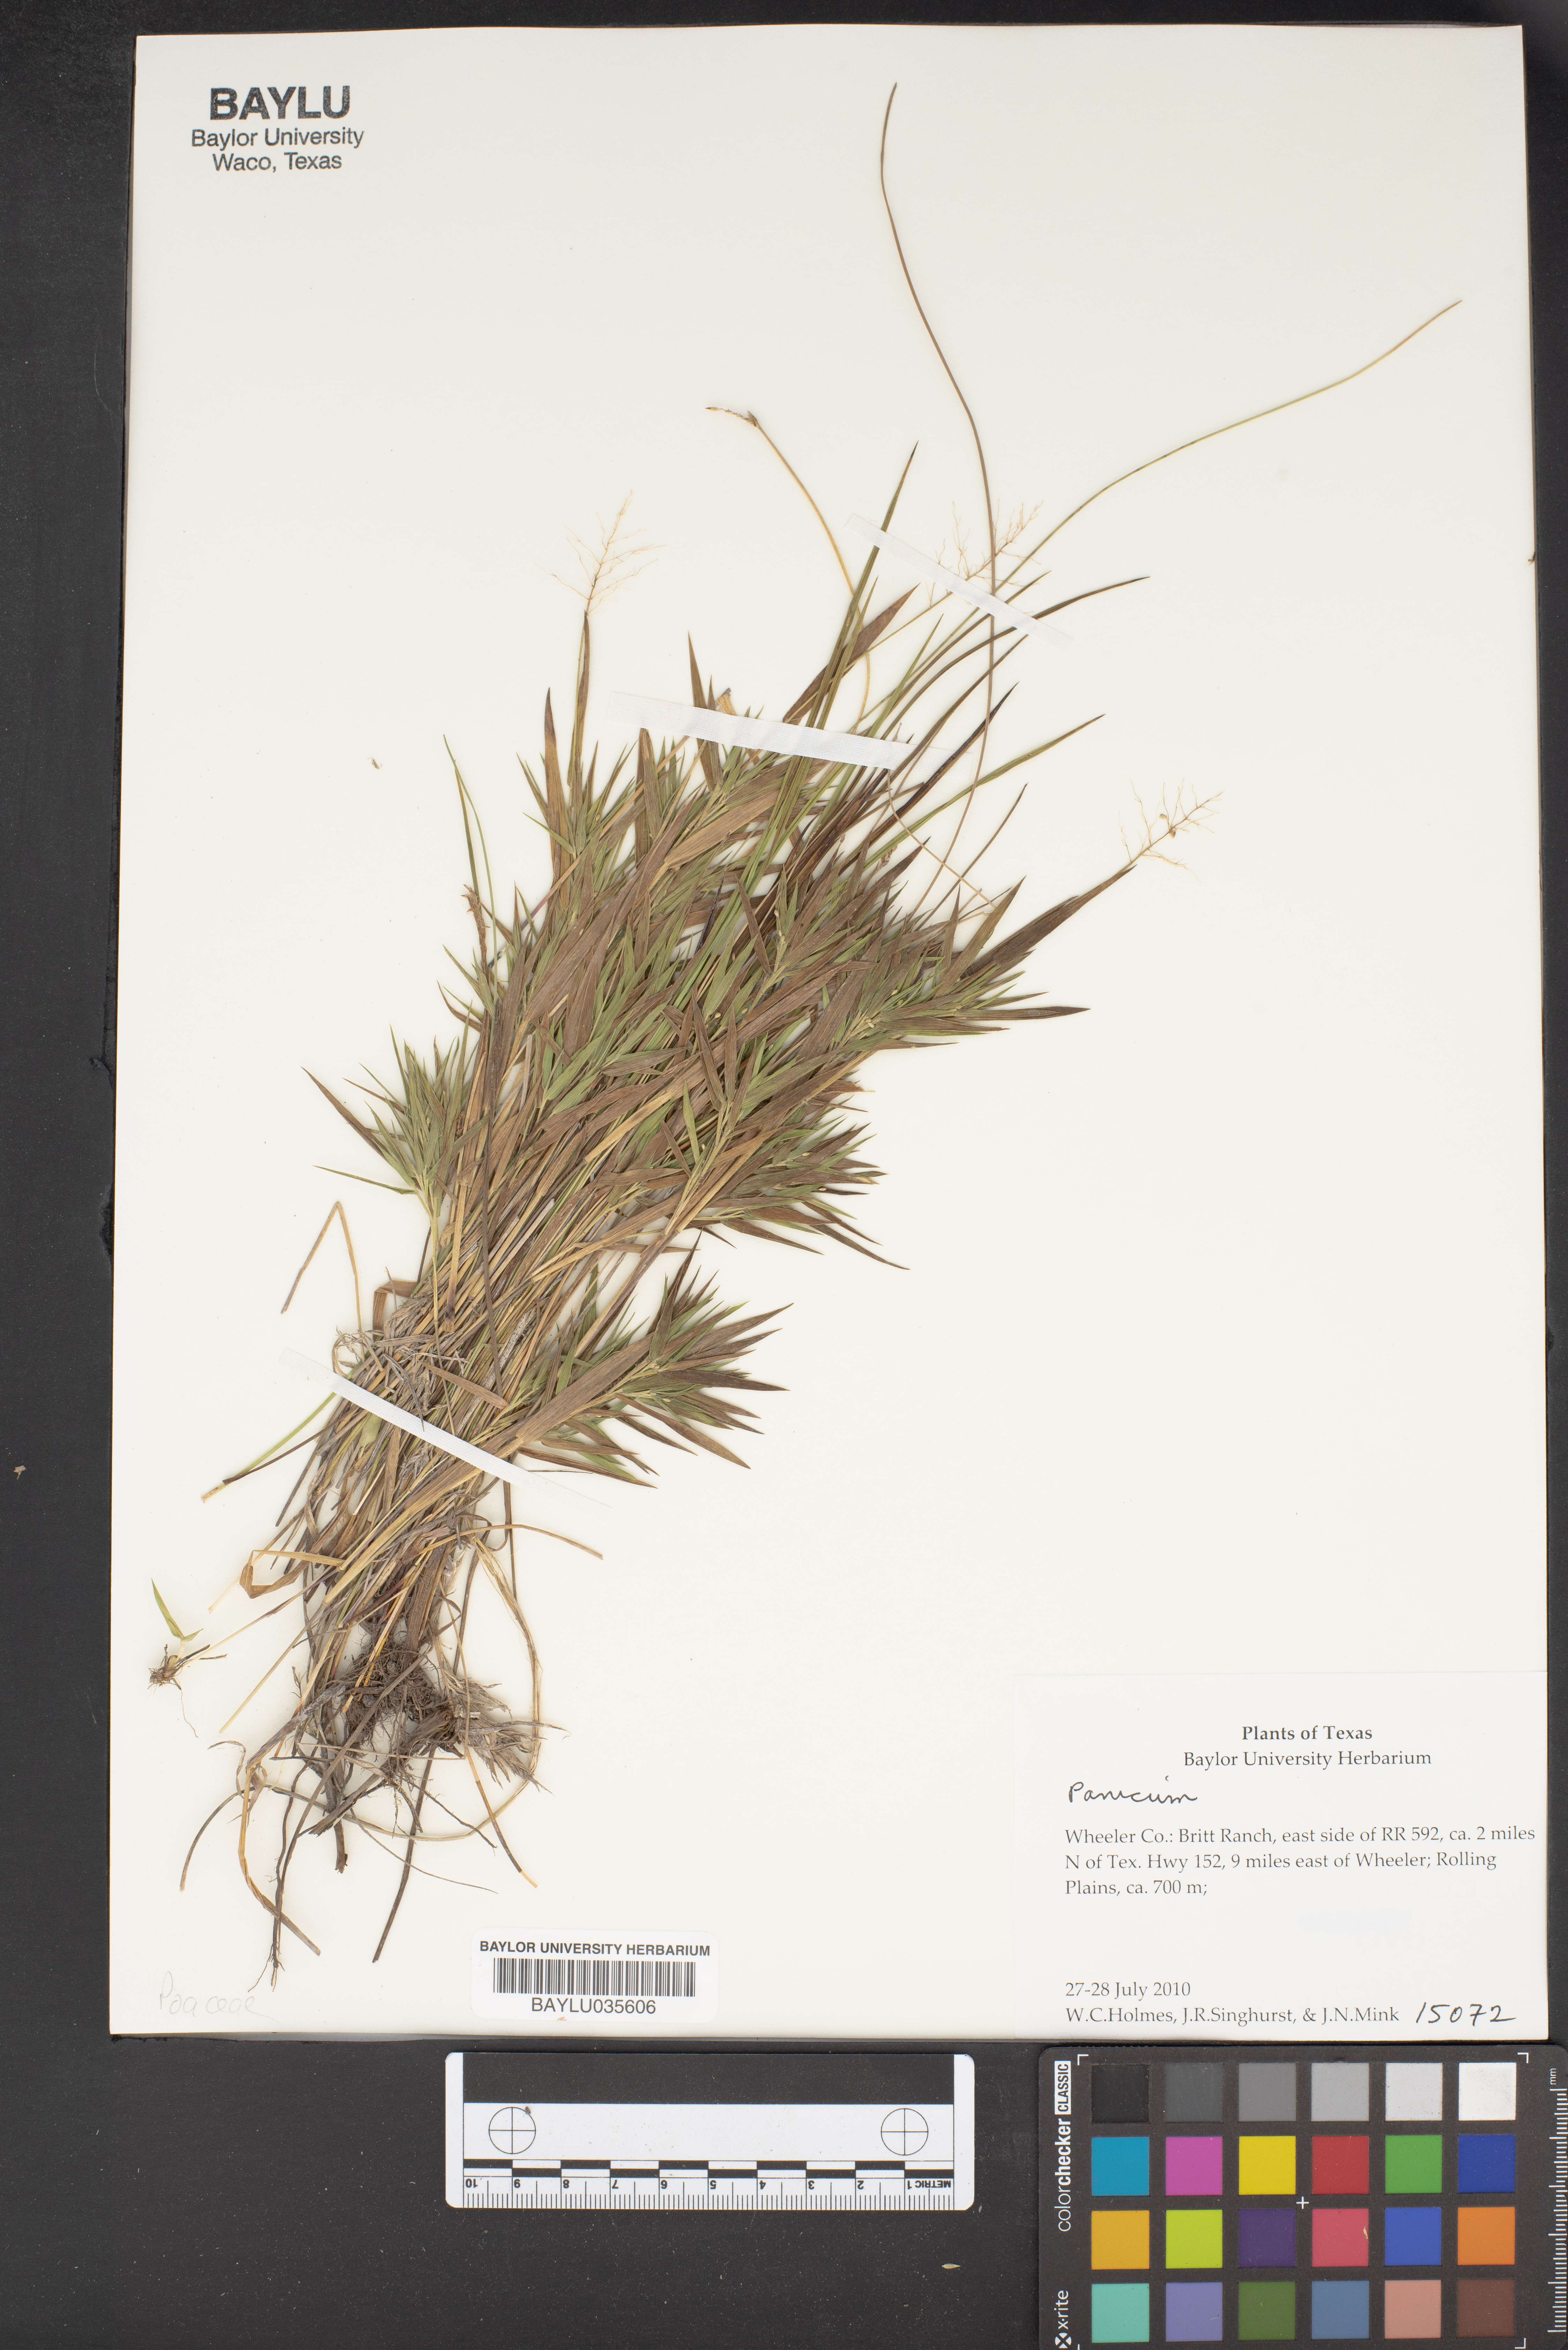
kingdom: Plantae
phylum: Tracheophyta
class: Liliopsida
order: Poales
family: Poaceae
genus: Panicum
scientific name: Panicum
